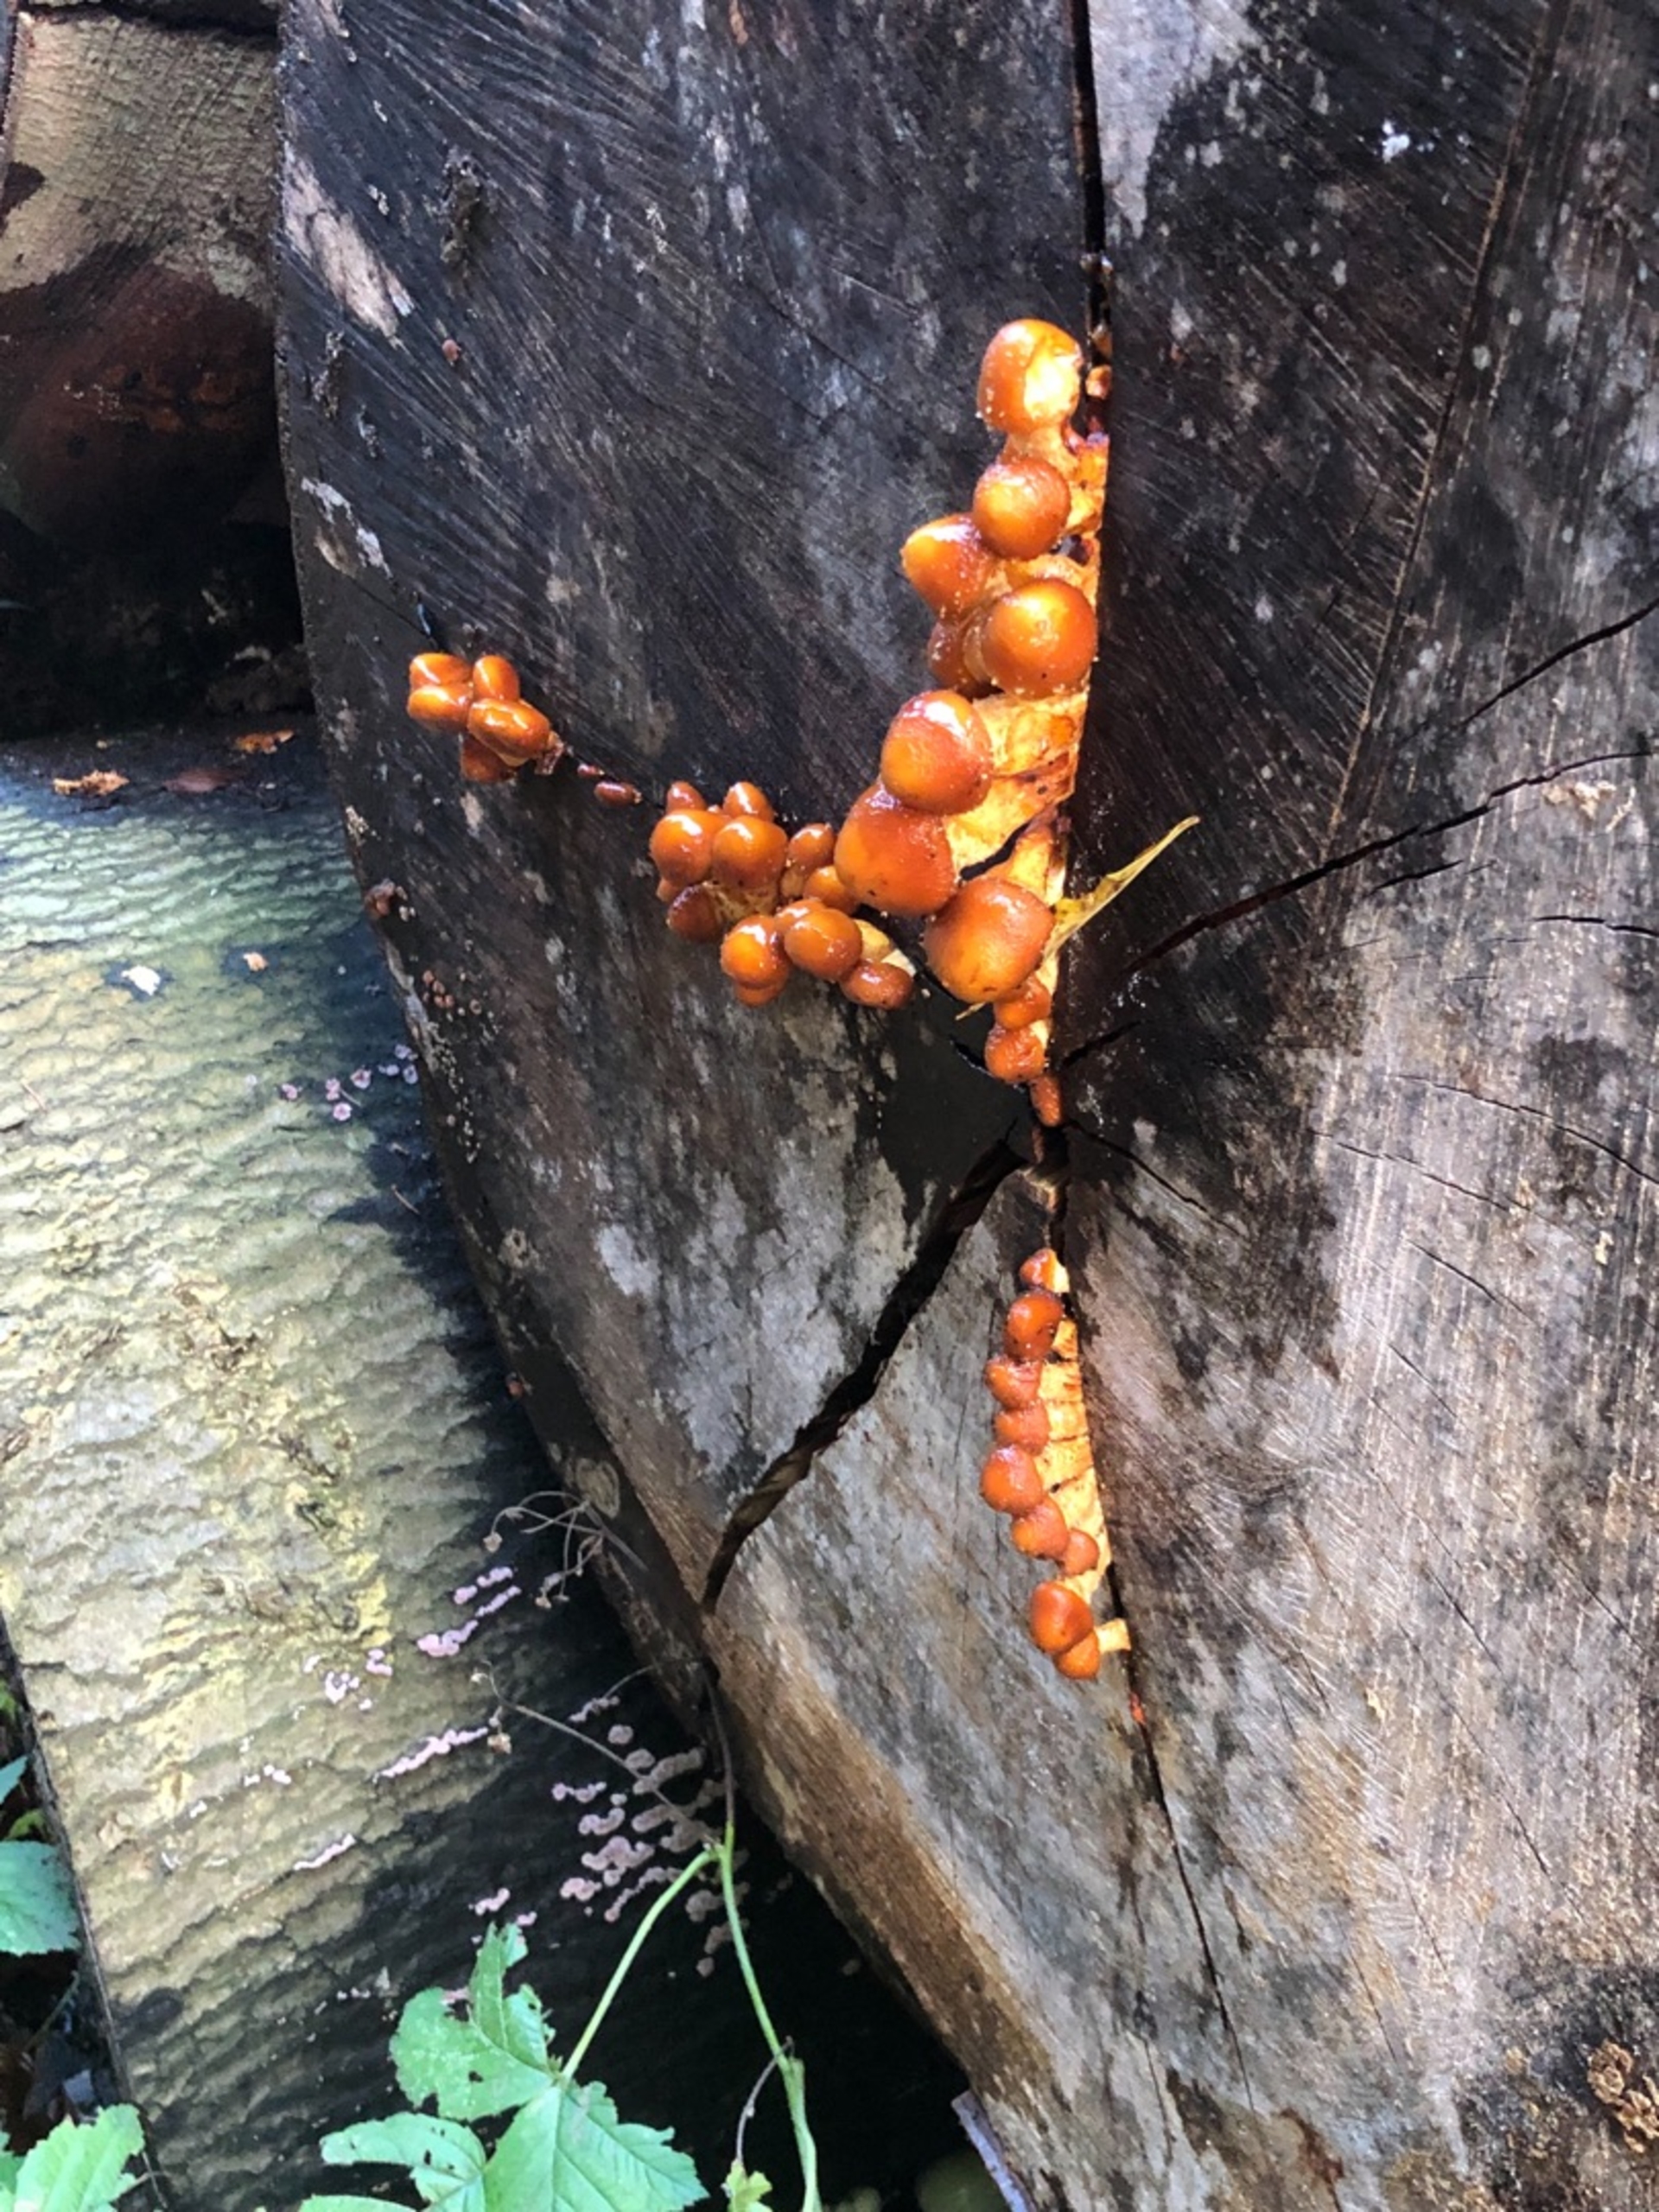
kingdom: Fungi
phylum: Basidiomycota
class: Agaricomycetes
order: Agaricales
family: Strophariaceae
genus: Pholiota
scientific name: Pholiota adiposa
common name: Højtsiddende skælhat
